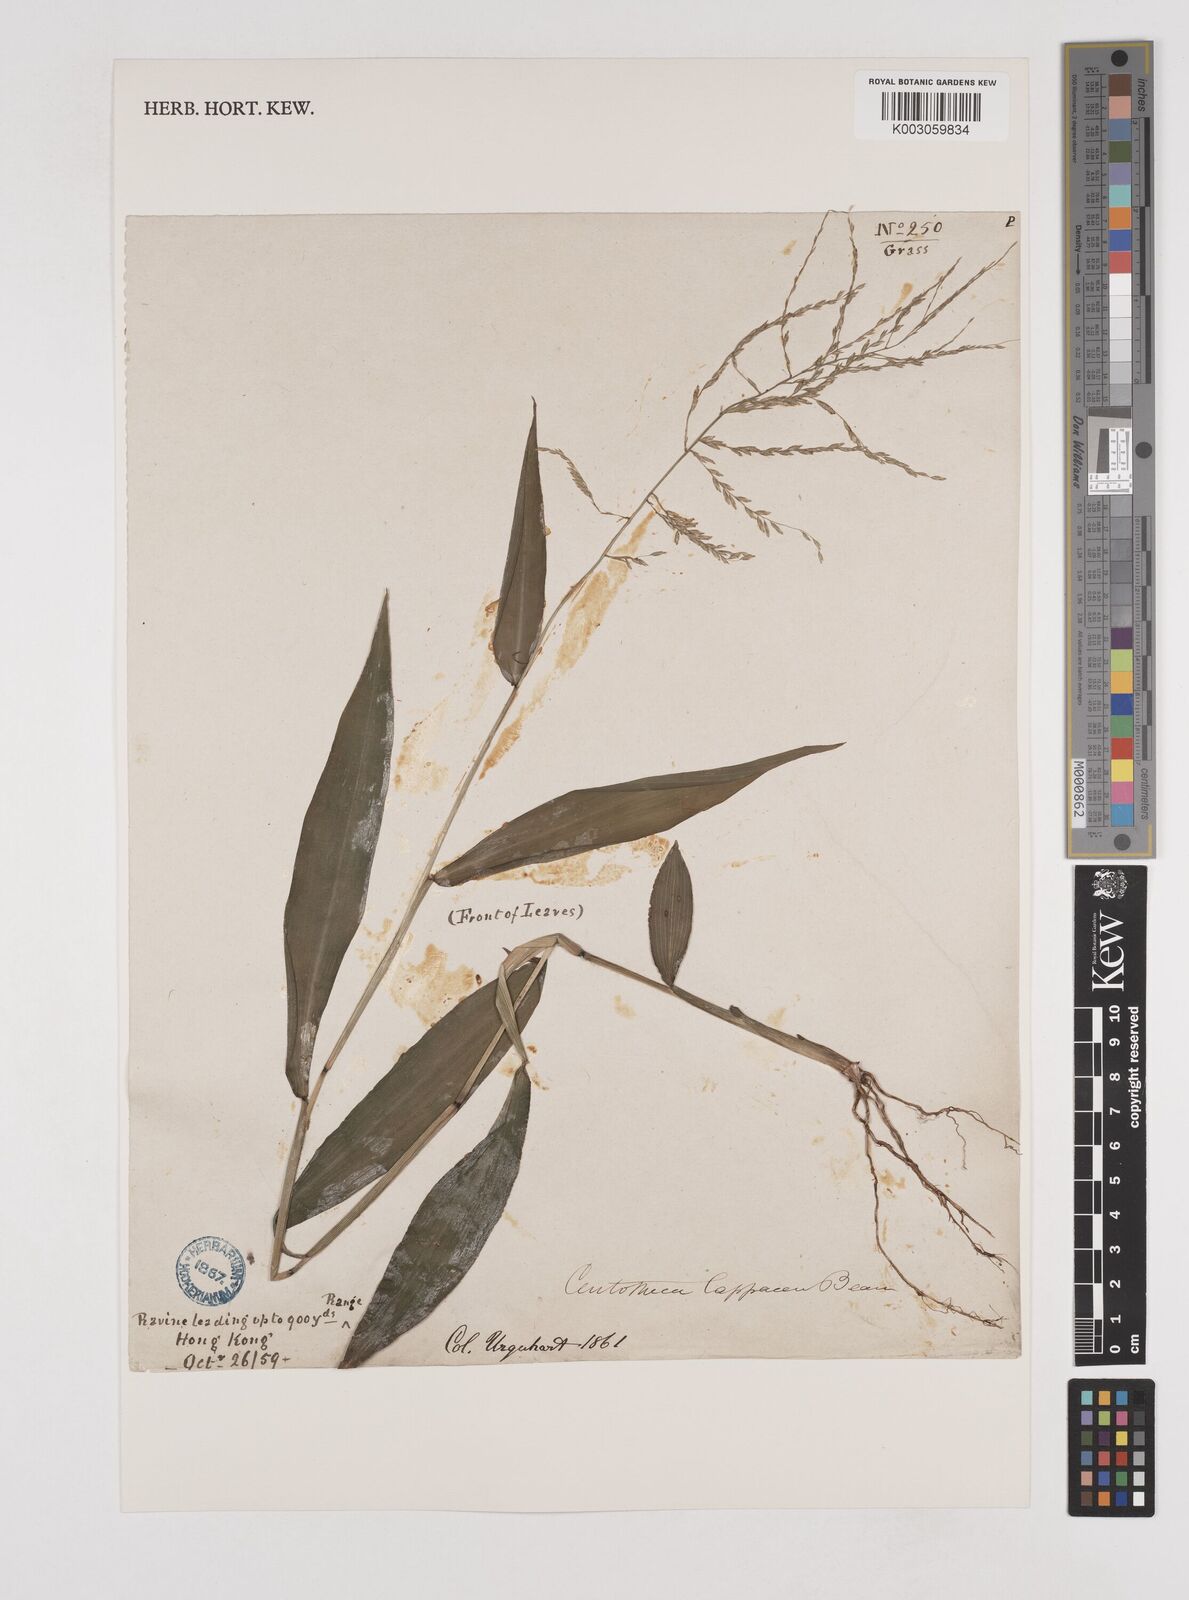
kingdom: Plantae
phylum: Tracheophyta
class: Liliopsida
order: Poales
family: Poaceae
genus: Centotheca
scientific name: Centotheca lappacea
